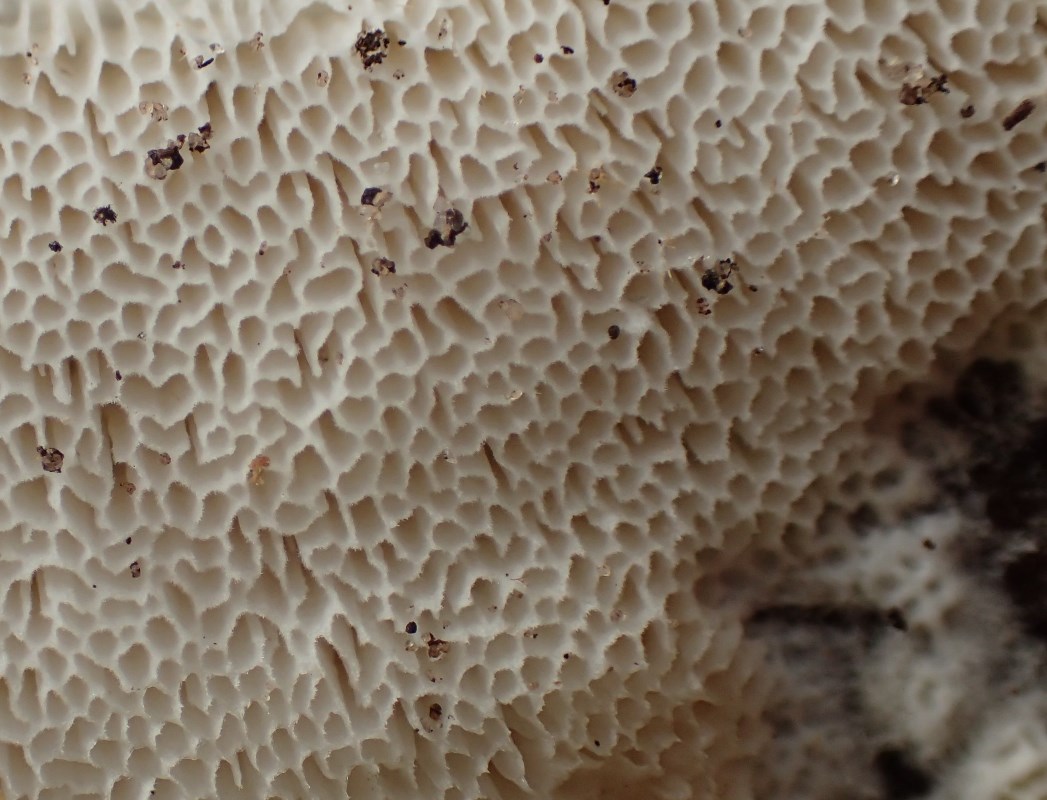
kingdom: Fungi
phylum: Basidiomycota
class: Agaricomycetes
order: Polyporales
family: Fibroporiaceae
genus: Fibroporia
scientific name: Fibroporia vaillantii
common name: mine-sejporesvamp
